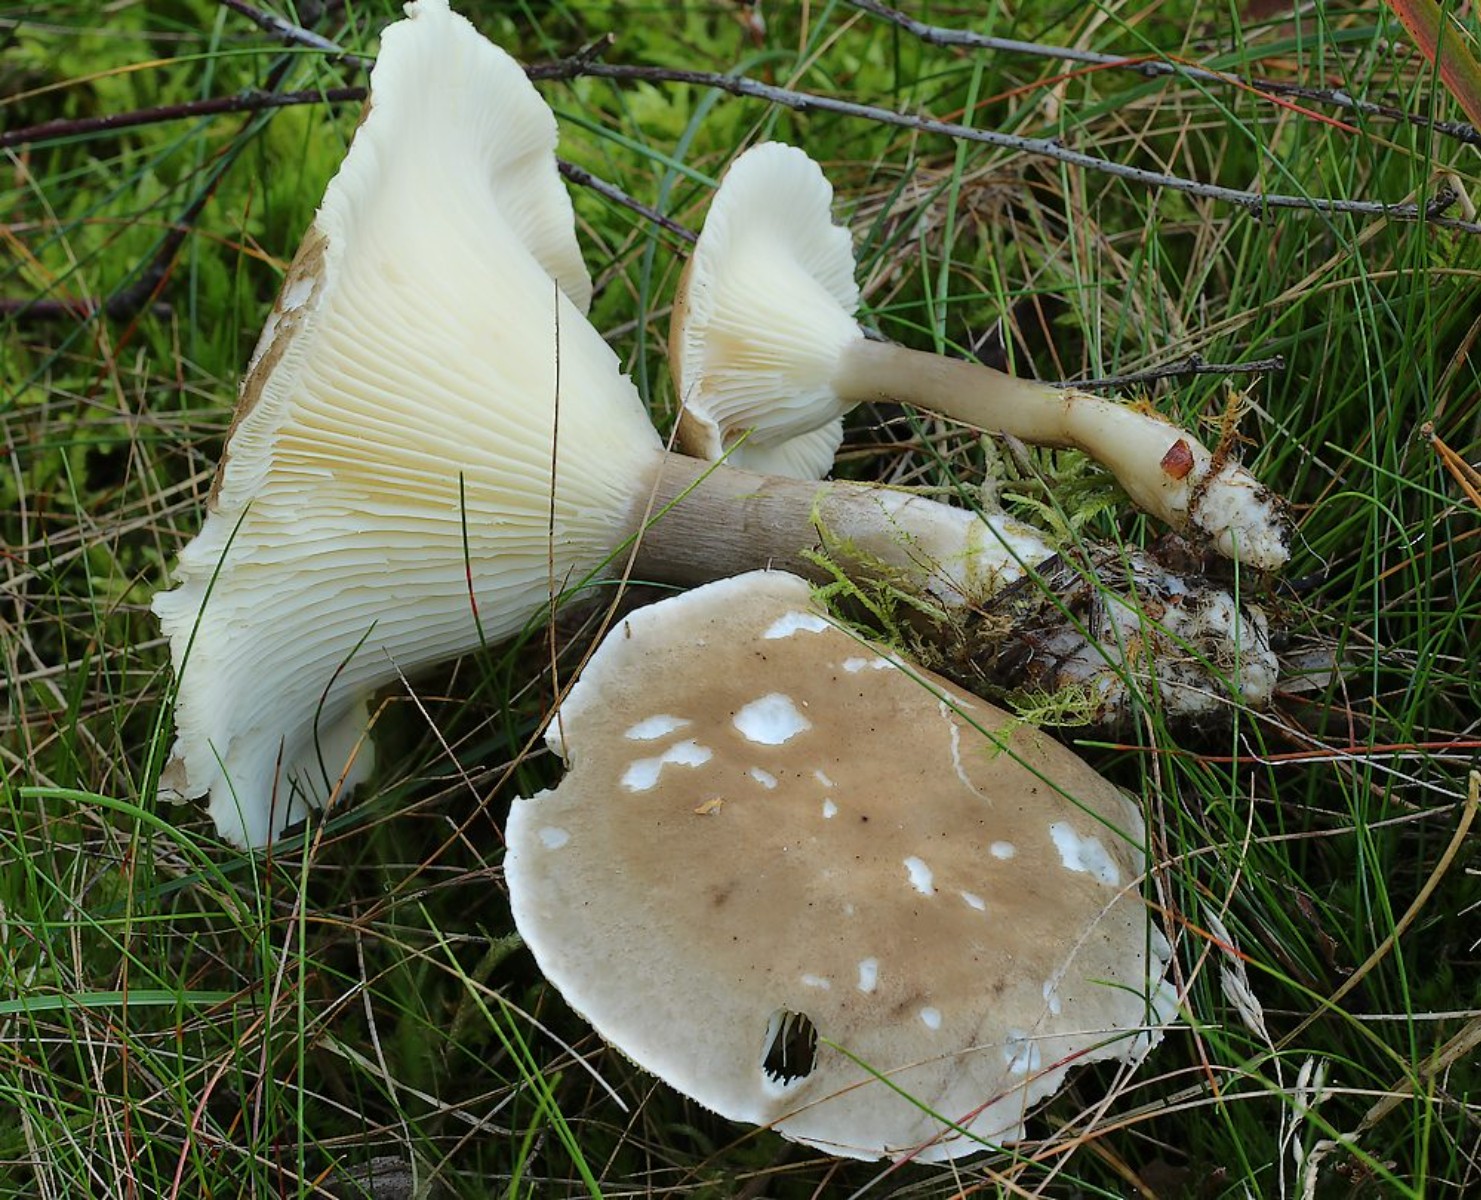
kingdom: Fungi
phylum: Basidiomycota
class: Agaricomycetes
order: Agaricales
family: Hygrophoraceae
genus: Ampulloclitocybe
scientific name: Ampulloclitocybe clavipes
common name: køllefod
